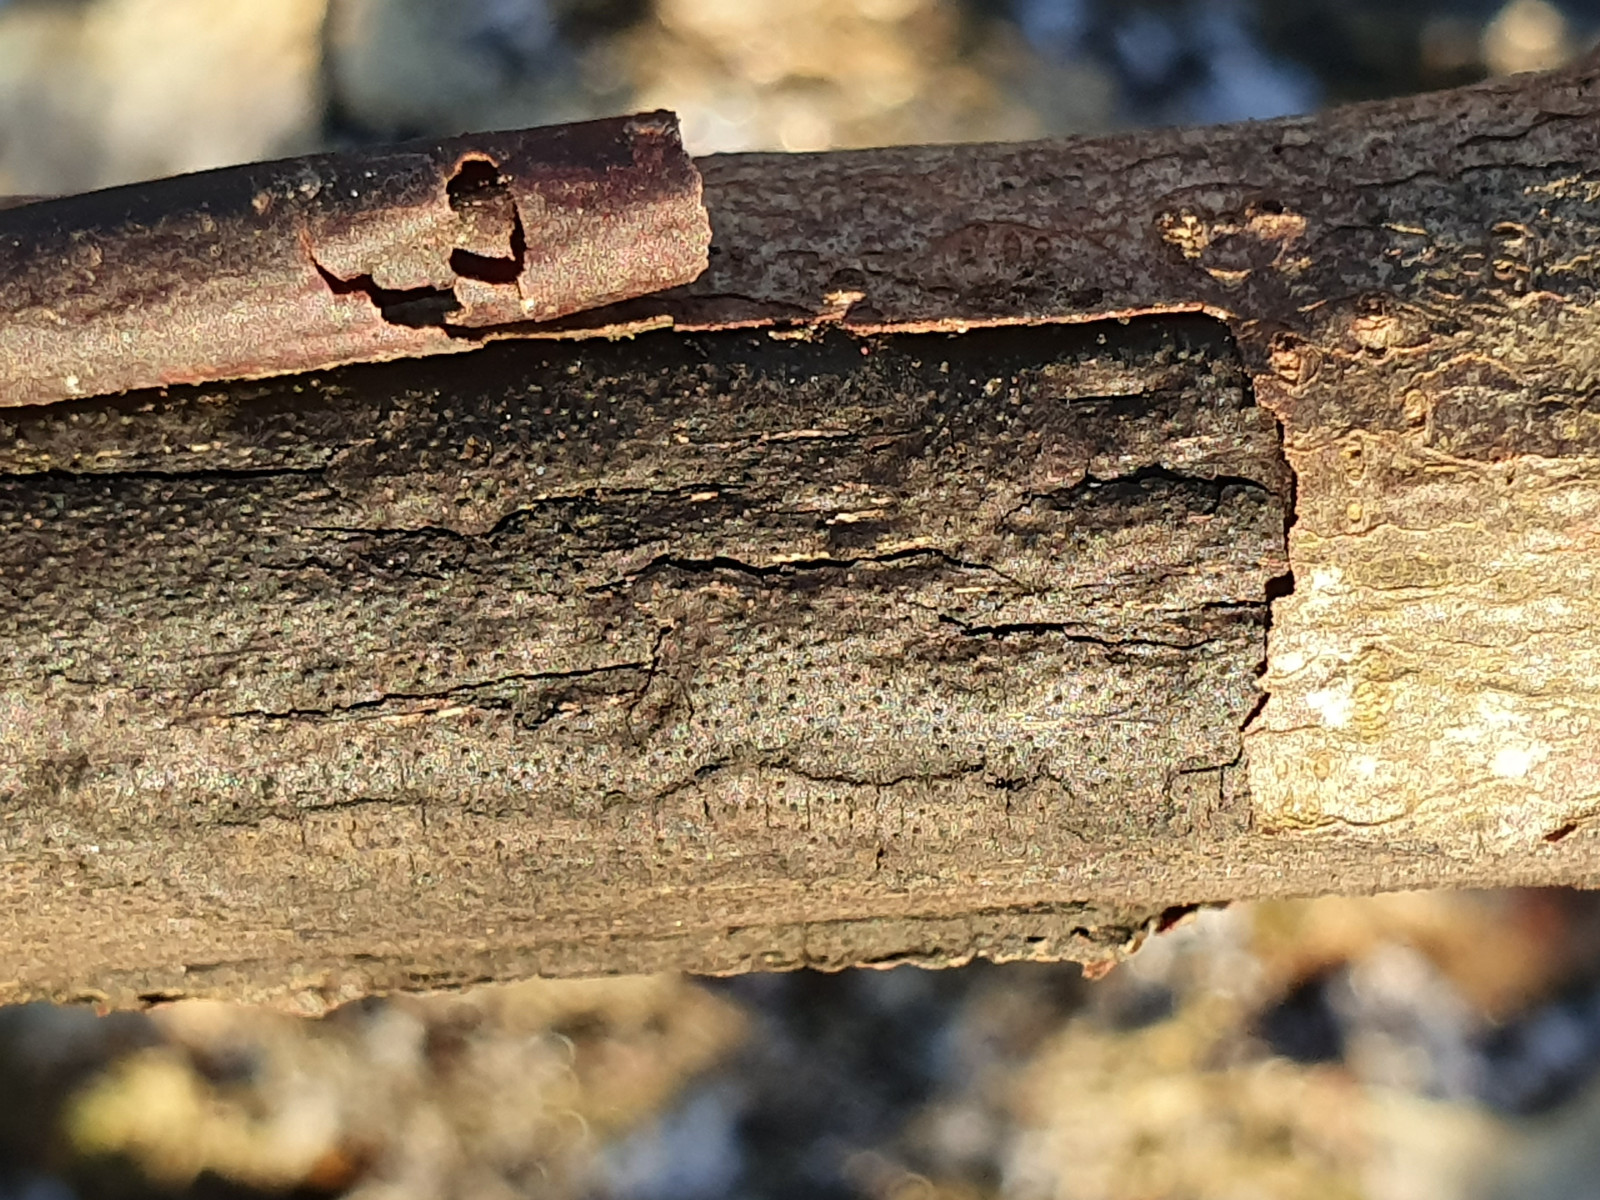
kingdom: Fungi
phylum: Ascomycota
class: Sordariomycetes
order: Xylariales
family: Diatrypaceae
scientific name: Diatrypaceae
